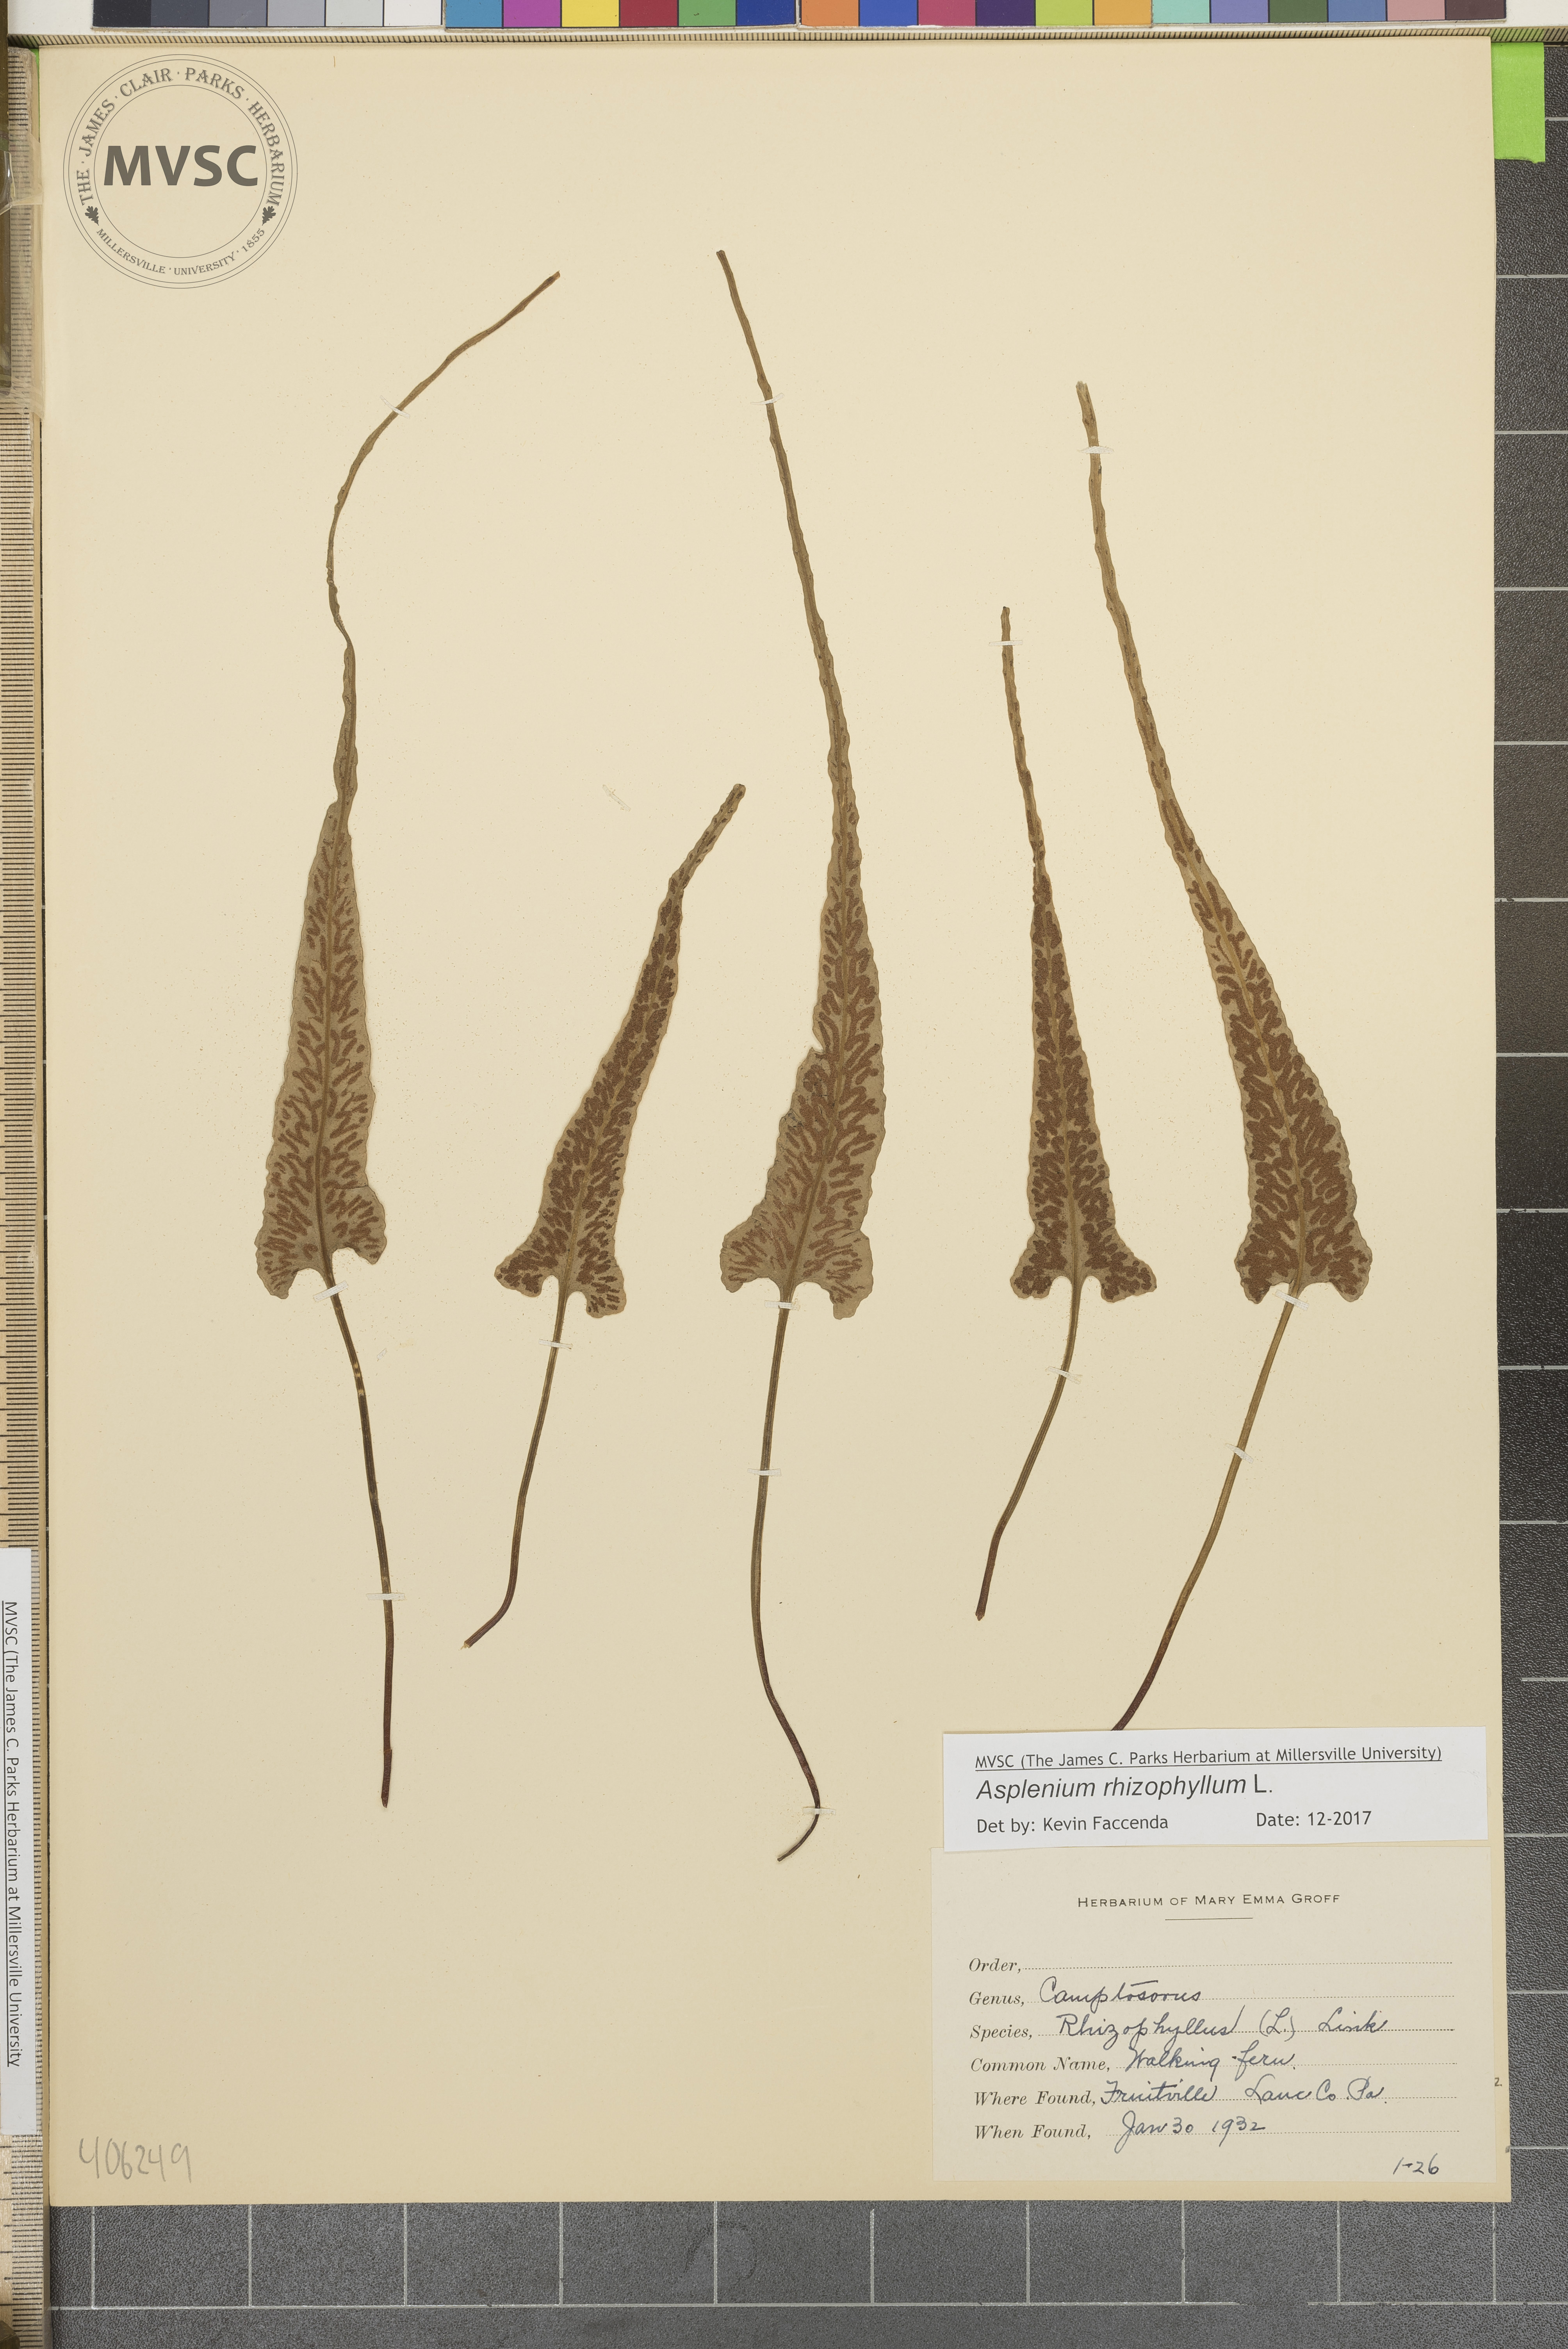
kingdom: Plantae
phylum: Tracheophyta
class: Polypodiopsida
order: Polypodiales
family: Aspleniaceae
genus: Asplenium
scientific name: Asplenium rhizophyllum
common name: Walking fern
